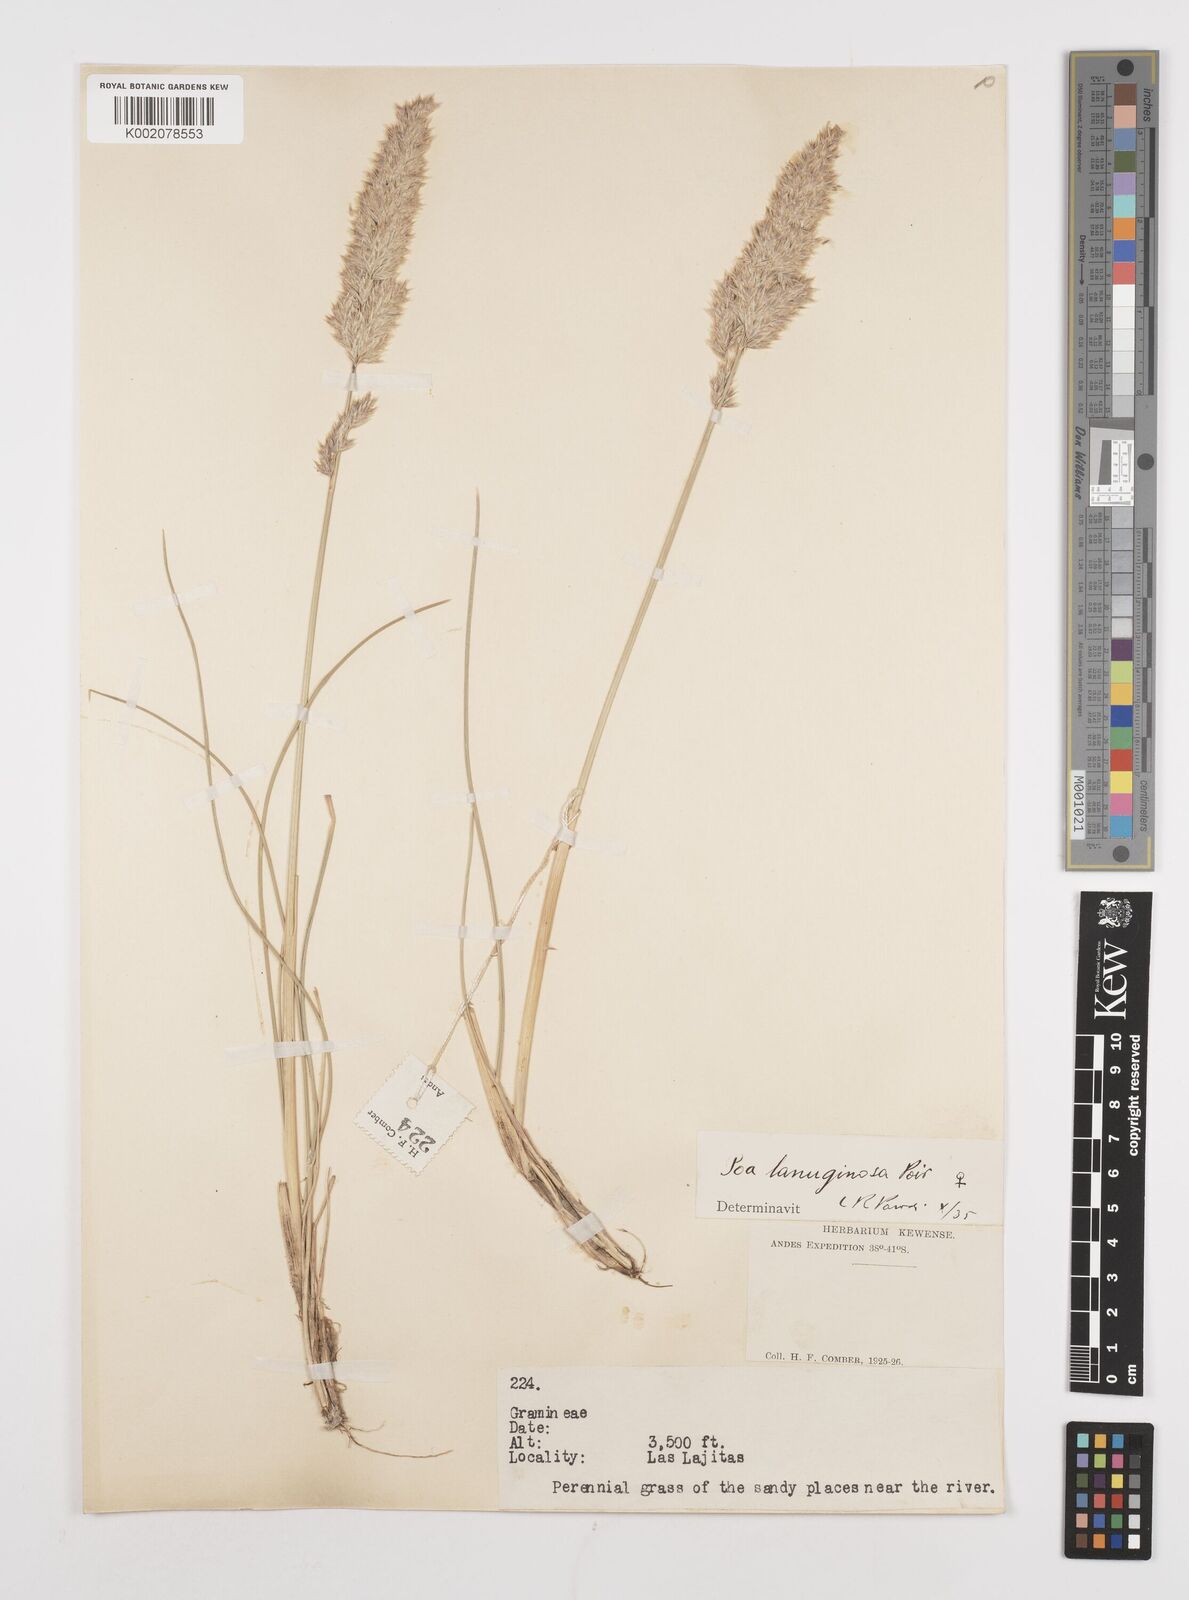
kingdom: Plantae
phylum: Tracheophyta
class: Liliopsida
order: Poales
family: Poaceae
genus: Poa
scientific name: Poa lanuginosa
